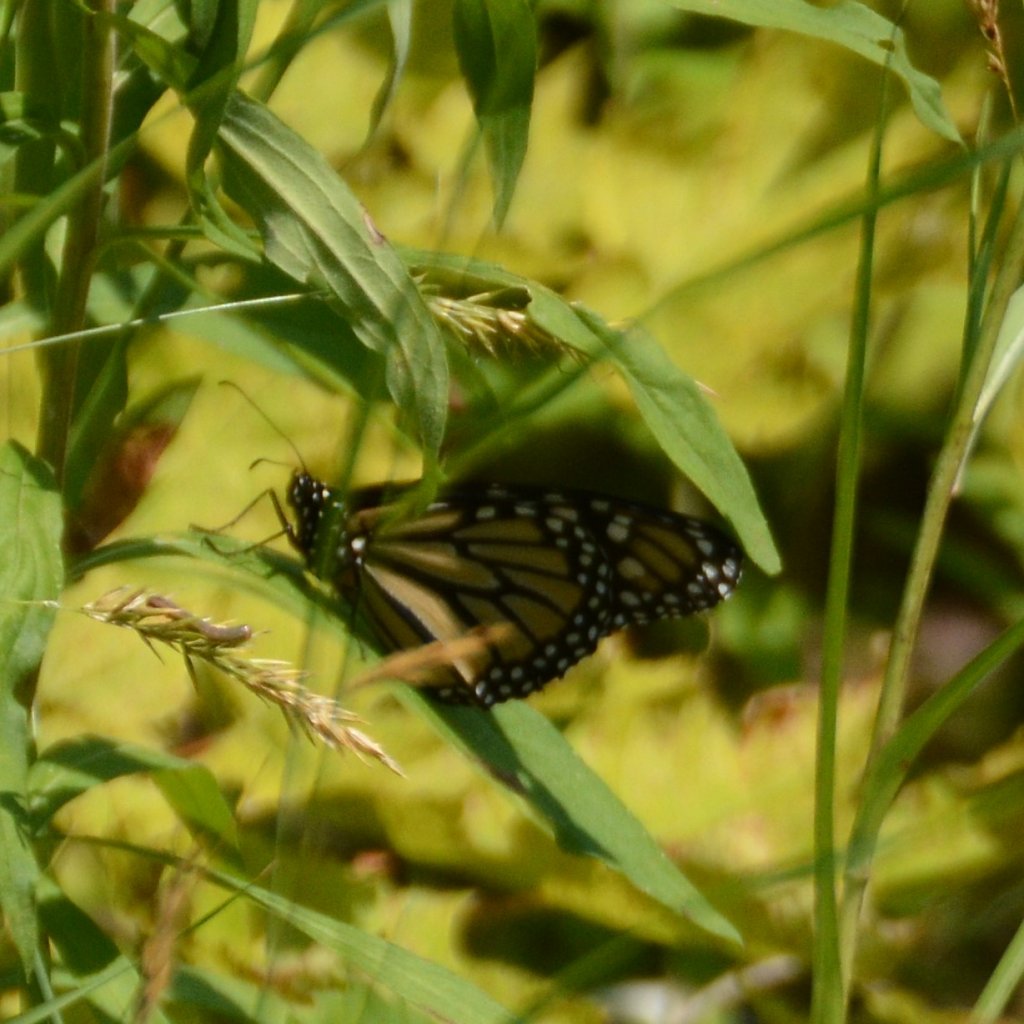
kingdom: Animalia
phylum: Arthropoda
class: Insecta
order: Lepidoptera
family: Nymphalidae
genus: Danaus
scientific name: Danaus plexippus
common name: Monarch
